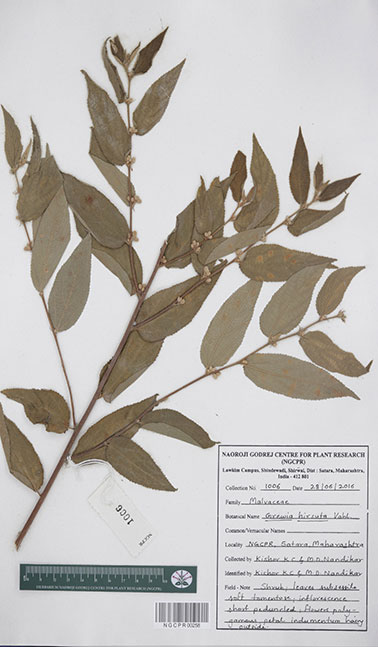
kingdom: Plantae
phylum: Tracheophyta
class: Magnoliopsida
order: Malvales
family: Malvaceae
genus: Grewia
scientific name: Grewia hirsuta
